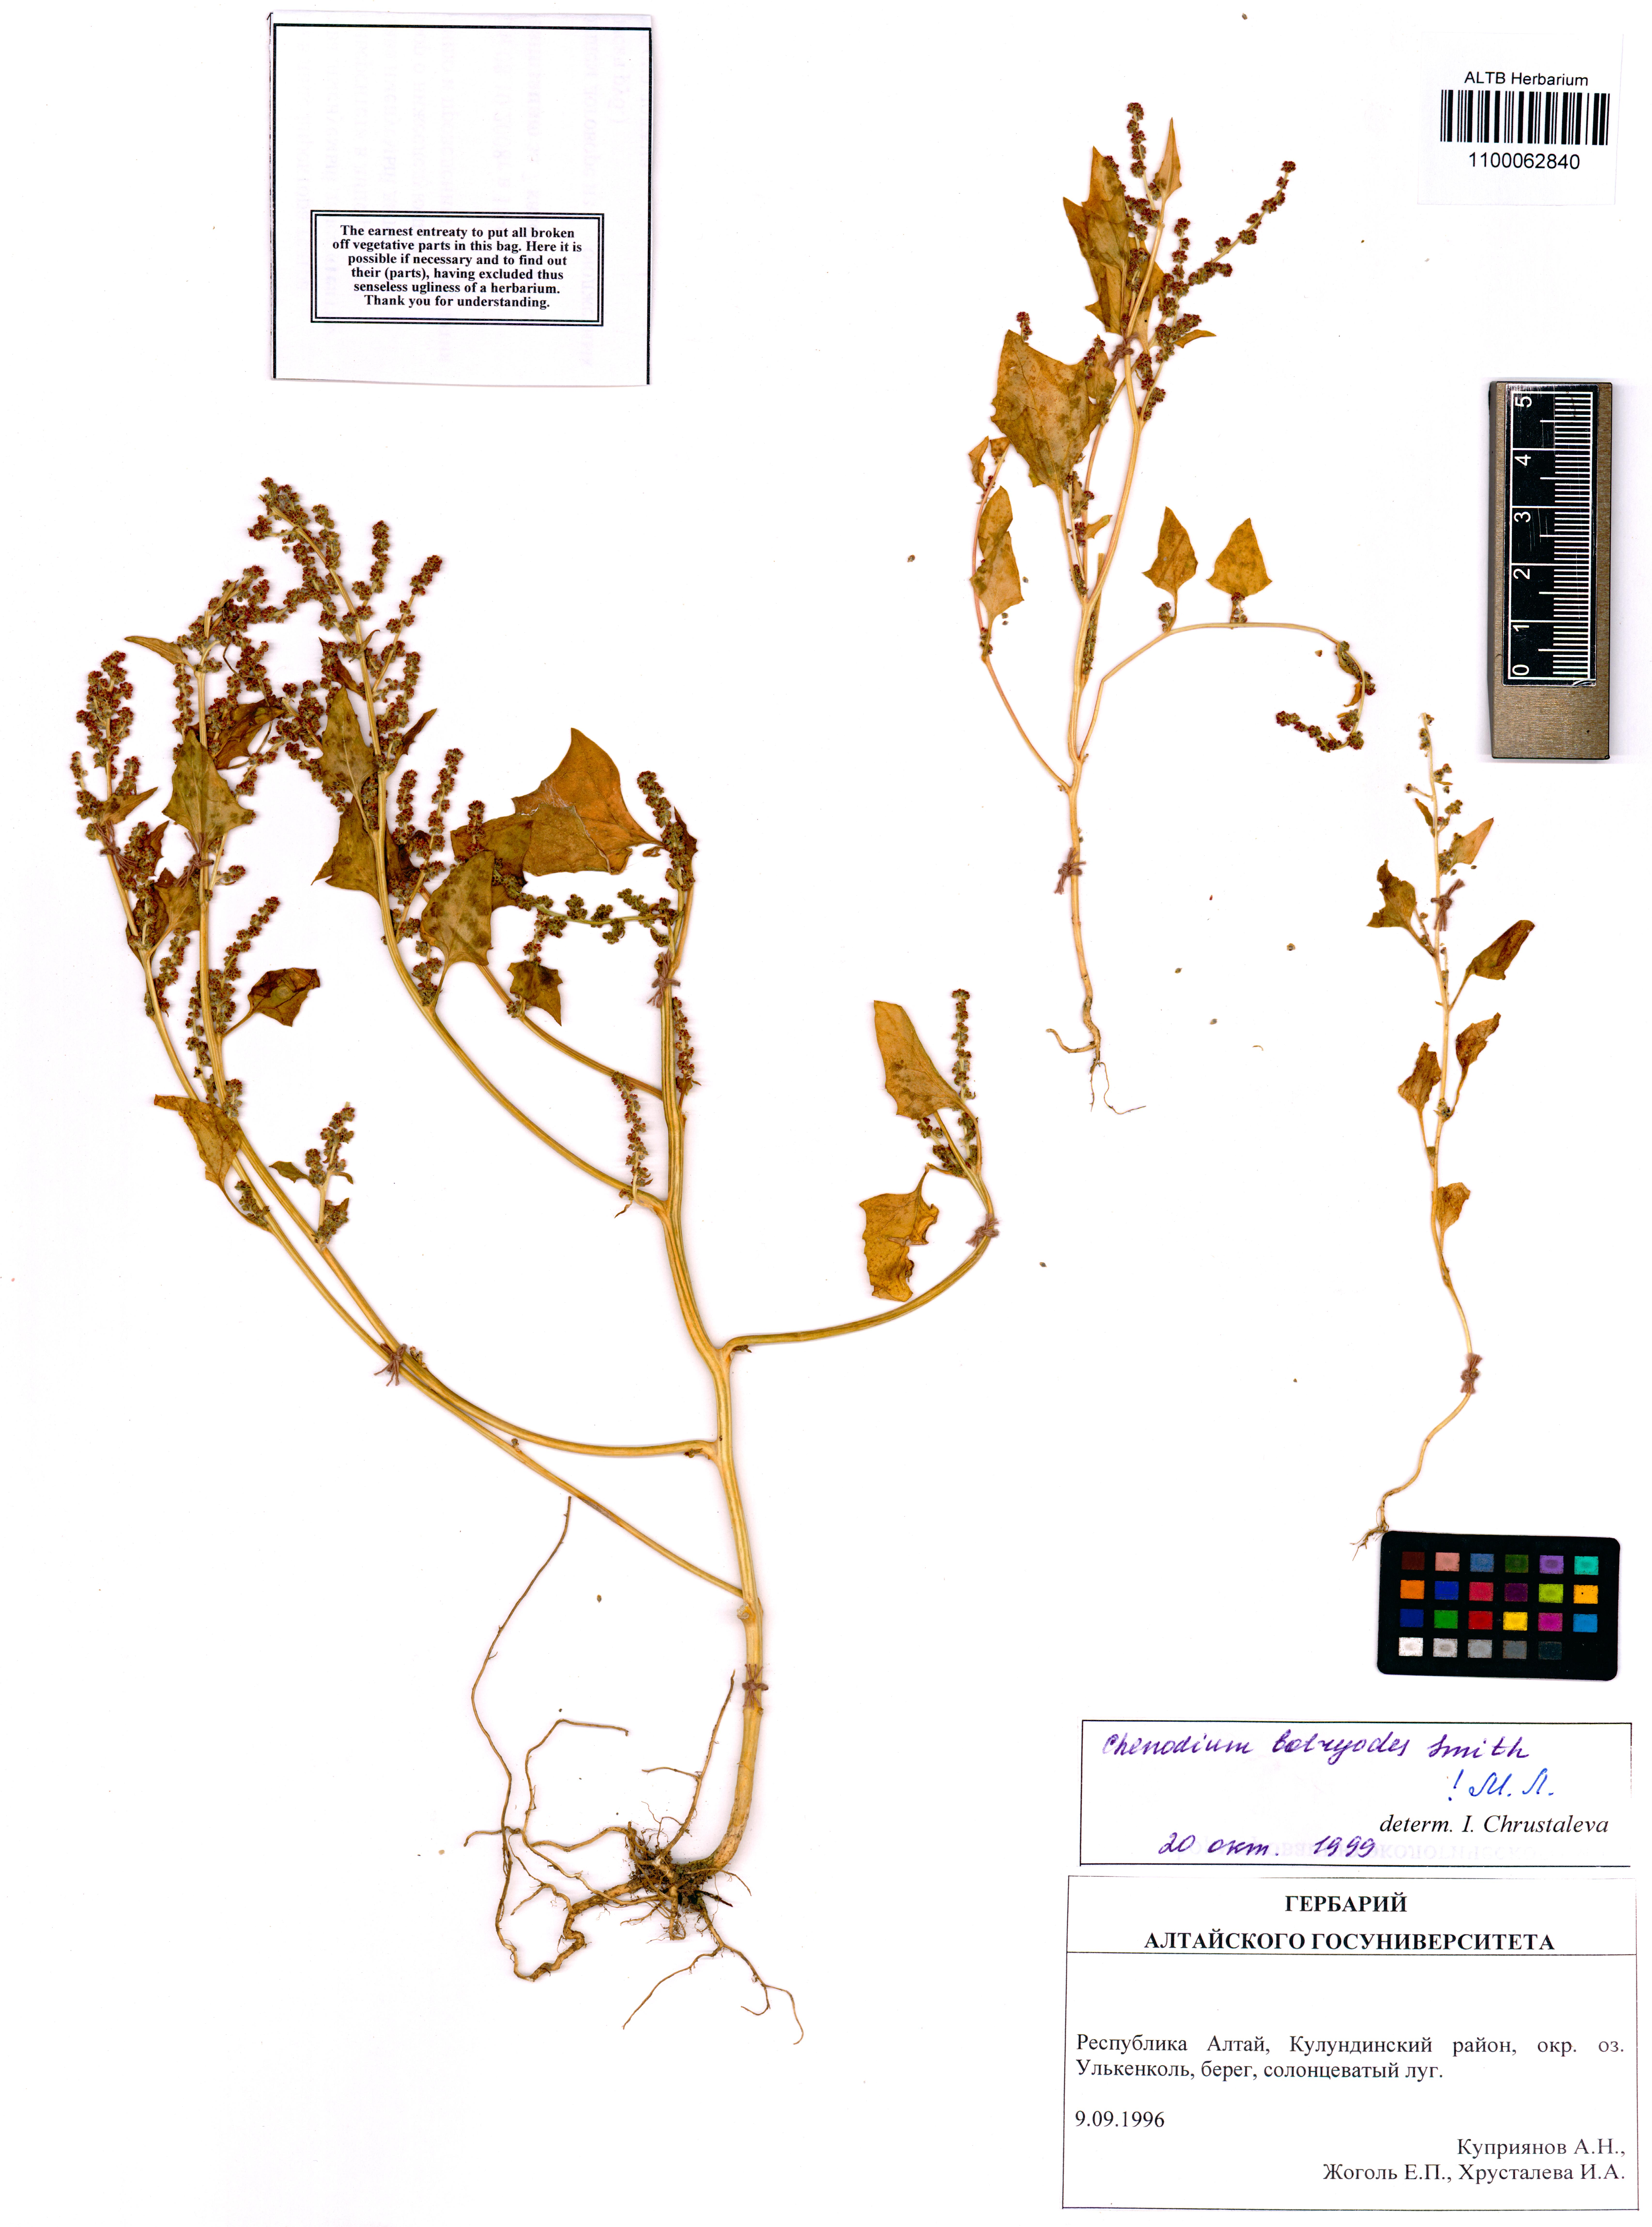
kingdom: Plantae
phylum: Tracheophyta
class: Magnoliopsida
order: Caryophyllales
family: Amaranthaceae
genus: Oxybasis
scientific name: Oxybasis chenopodioides
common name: Saltmarsh goosefoot
